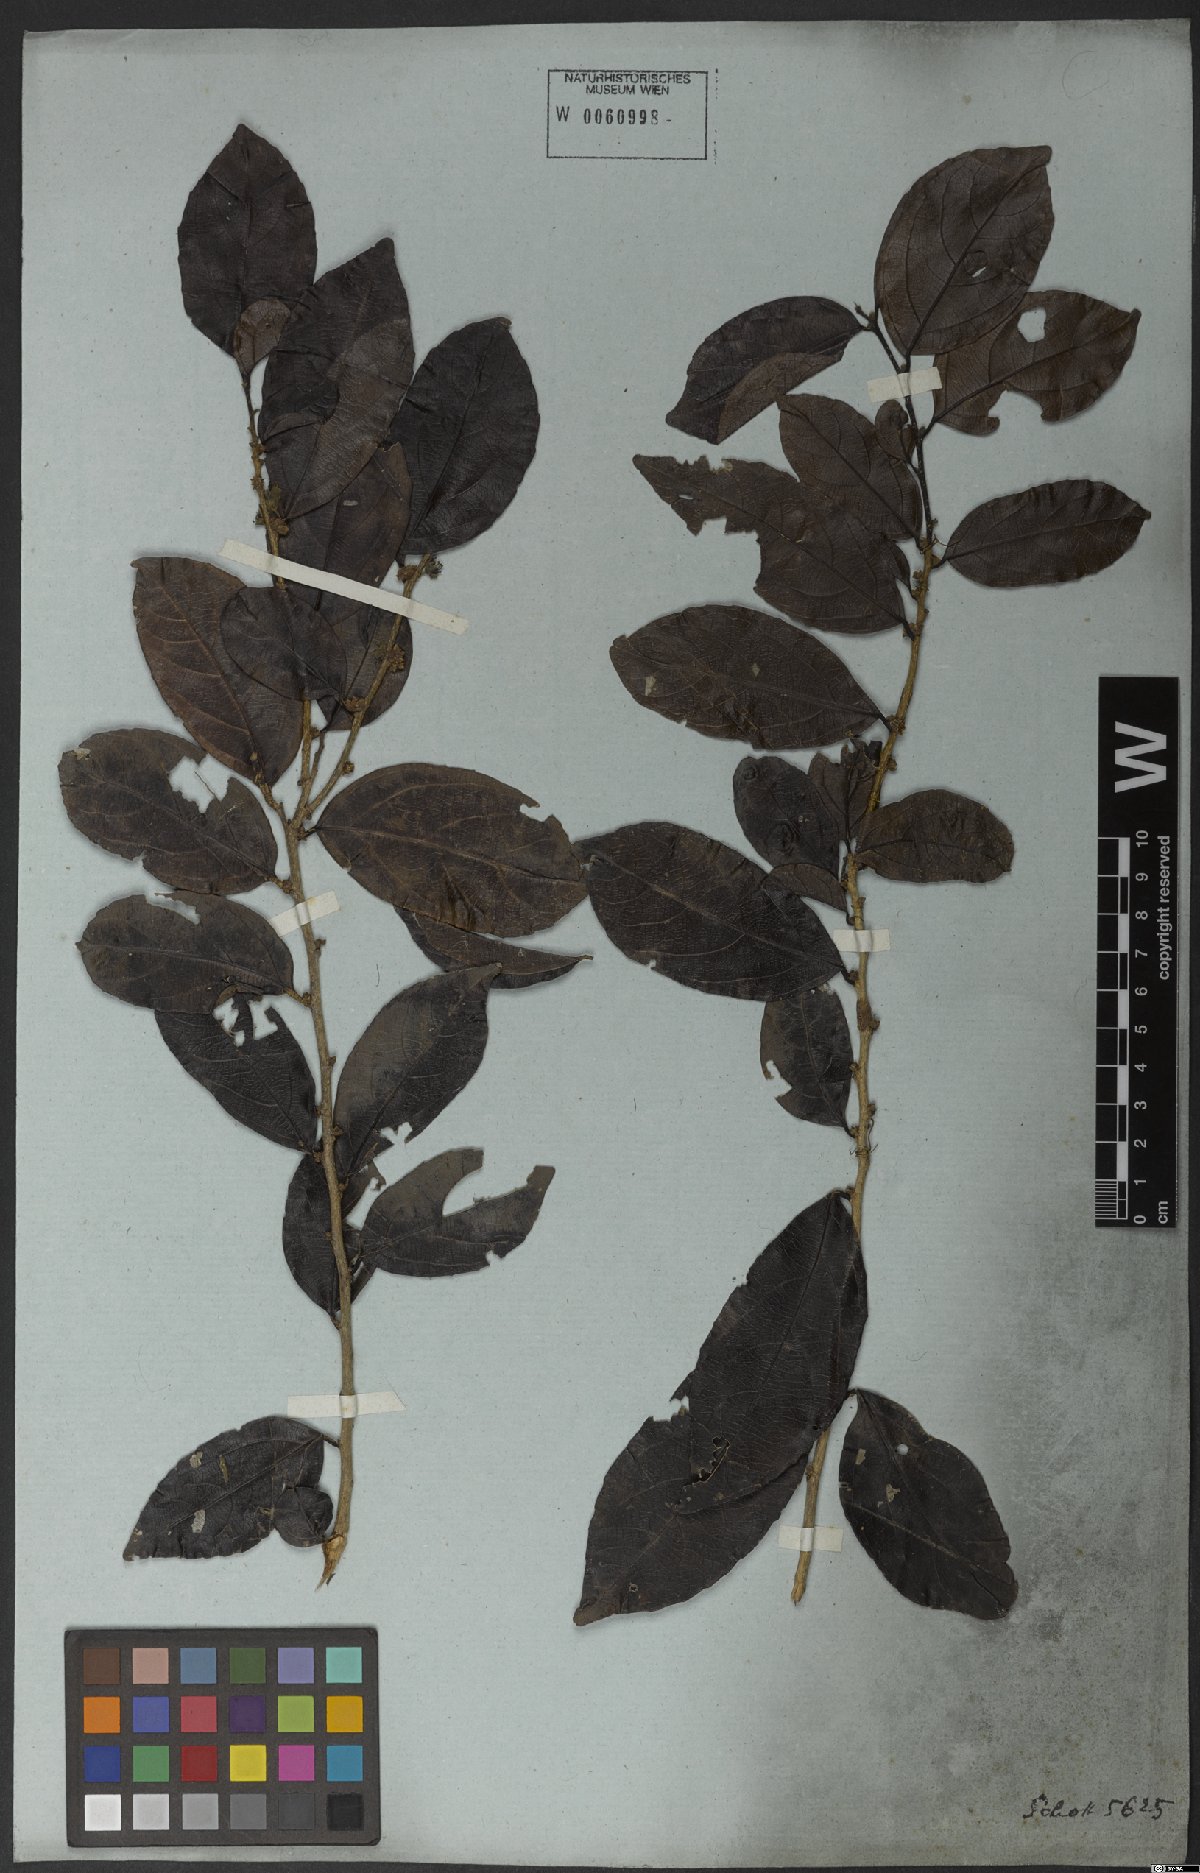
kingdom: Plantae
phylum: Tracheophyta
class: Magnoliopsida
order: Malpighiales
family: Salicaceae
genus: Piparea
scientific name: Piparea dentata
